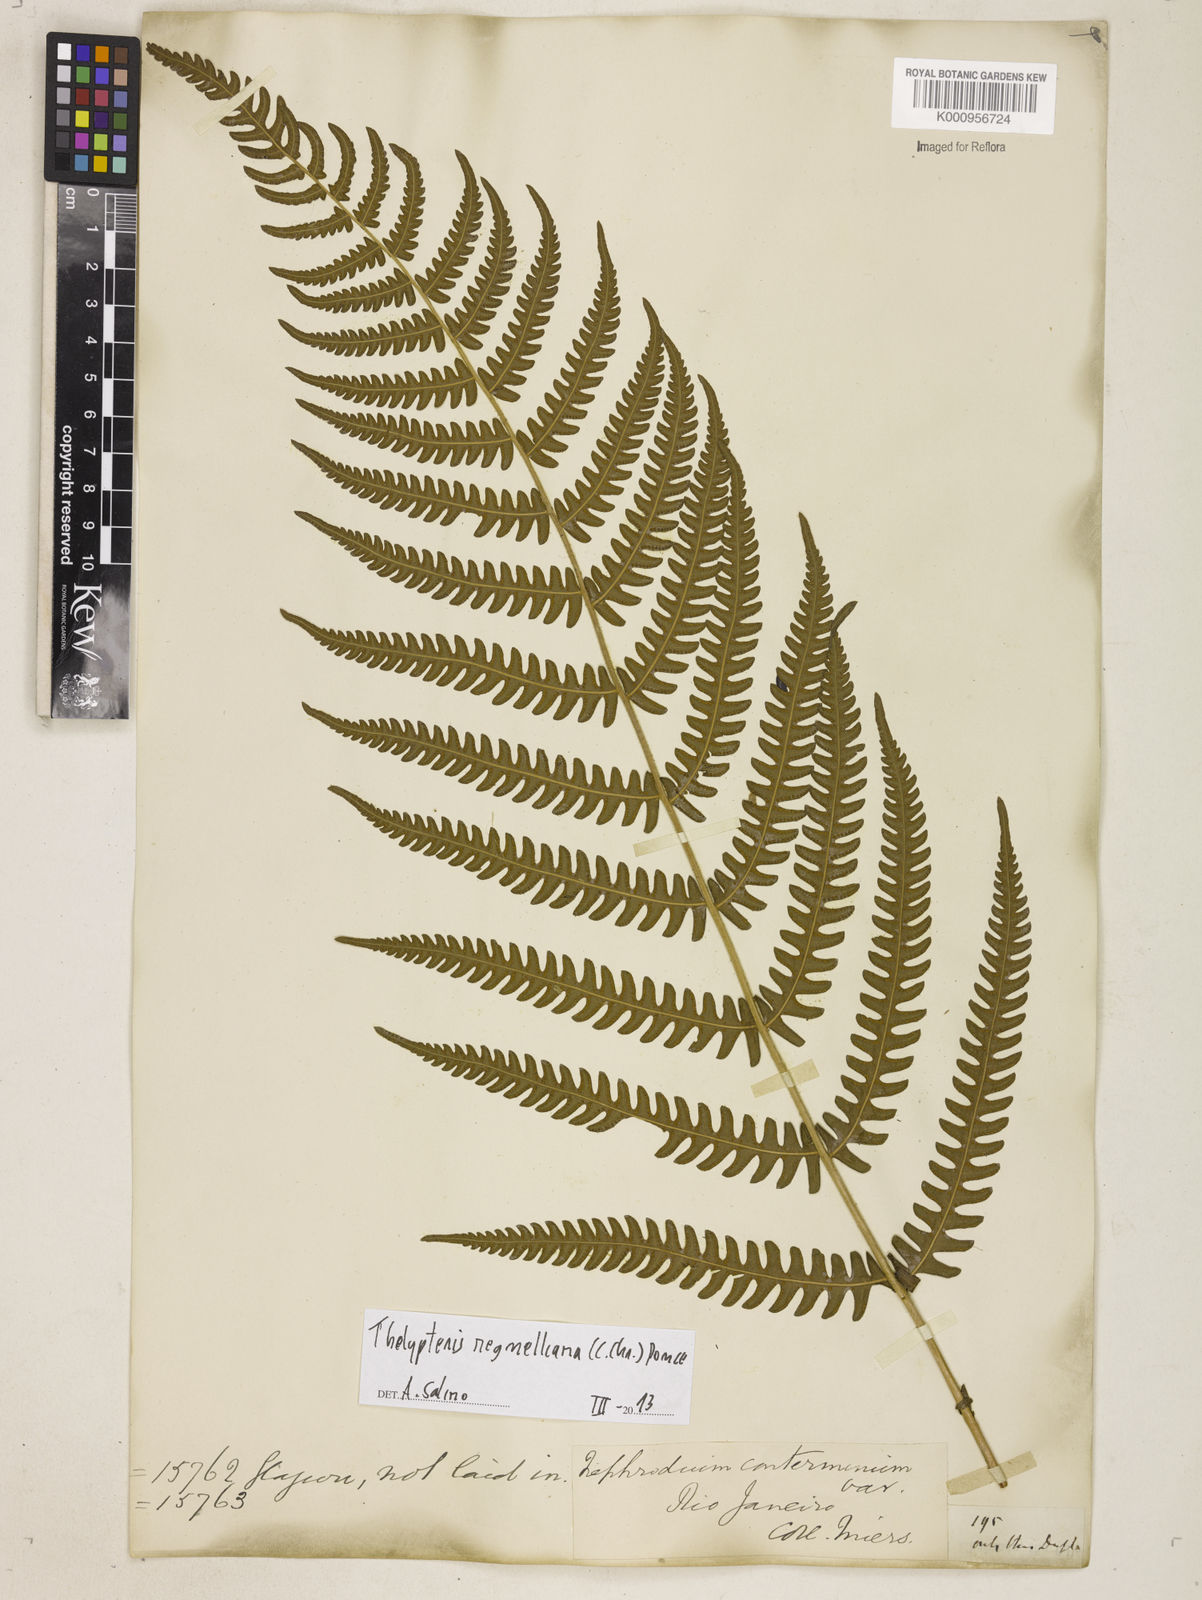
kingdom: Plantae
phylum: Tracheophyta
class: Polypodiopsida
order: Polypodiales
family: Thelypteridaceae
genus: Amauropelta
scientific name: Amauropelta
